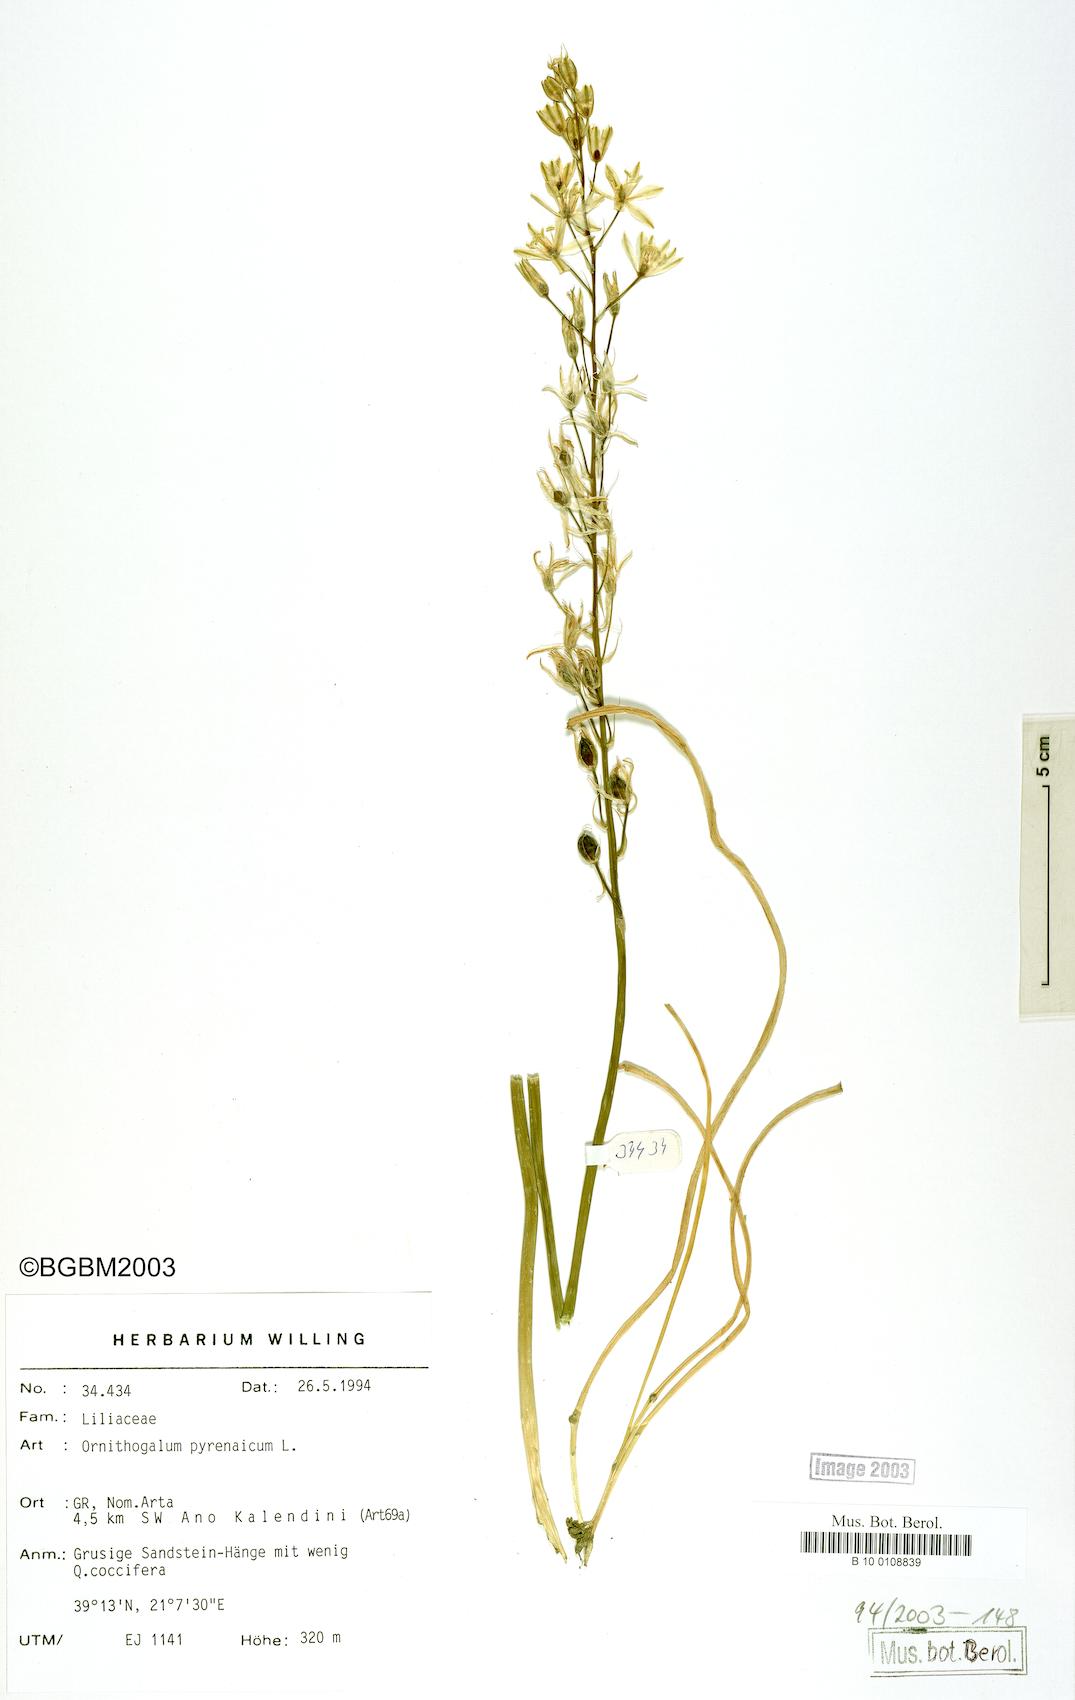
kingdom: Plantae
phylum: Tracheophyta
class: Liliopsida
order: Asparagales
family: Asparagaceae
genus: Ornithogalum
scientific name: Ornithogalum pyrenaicum
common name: Spiked star-of-bethlehem
